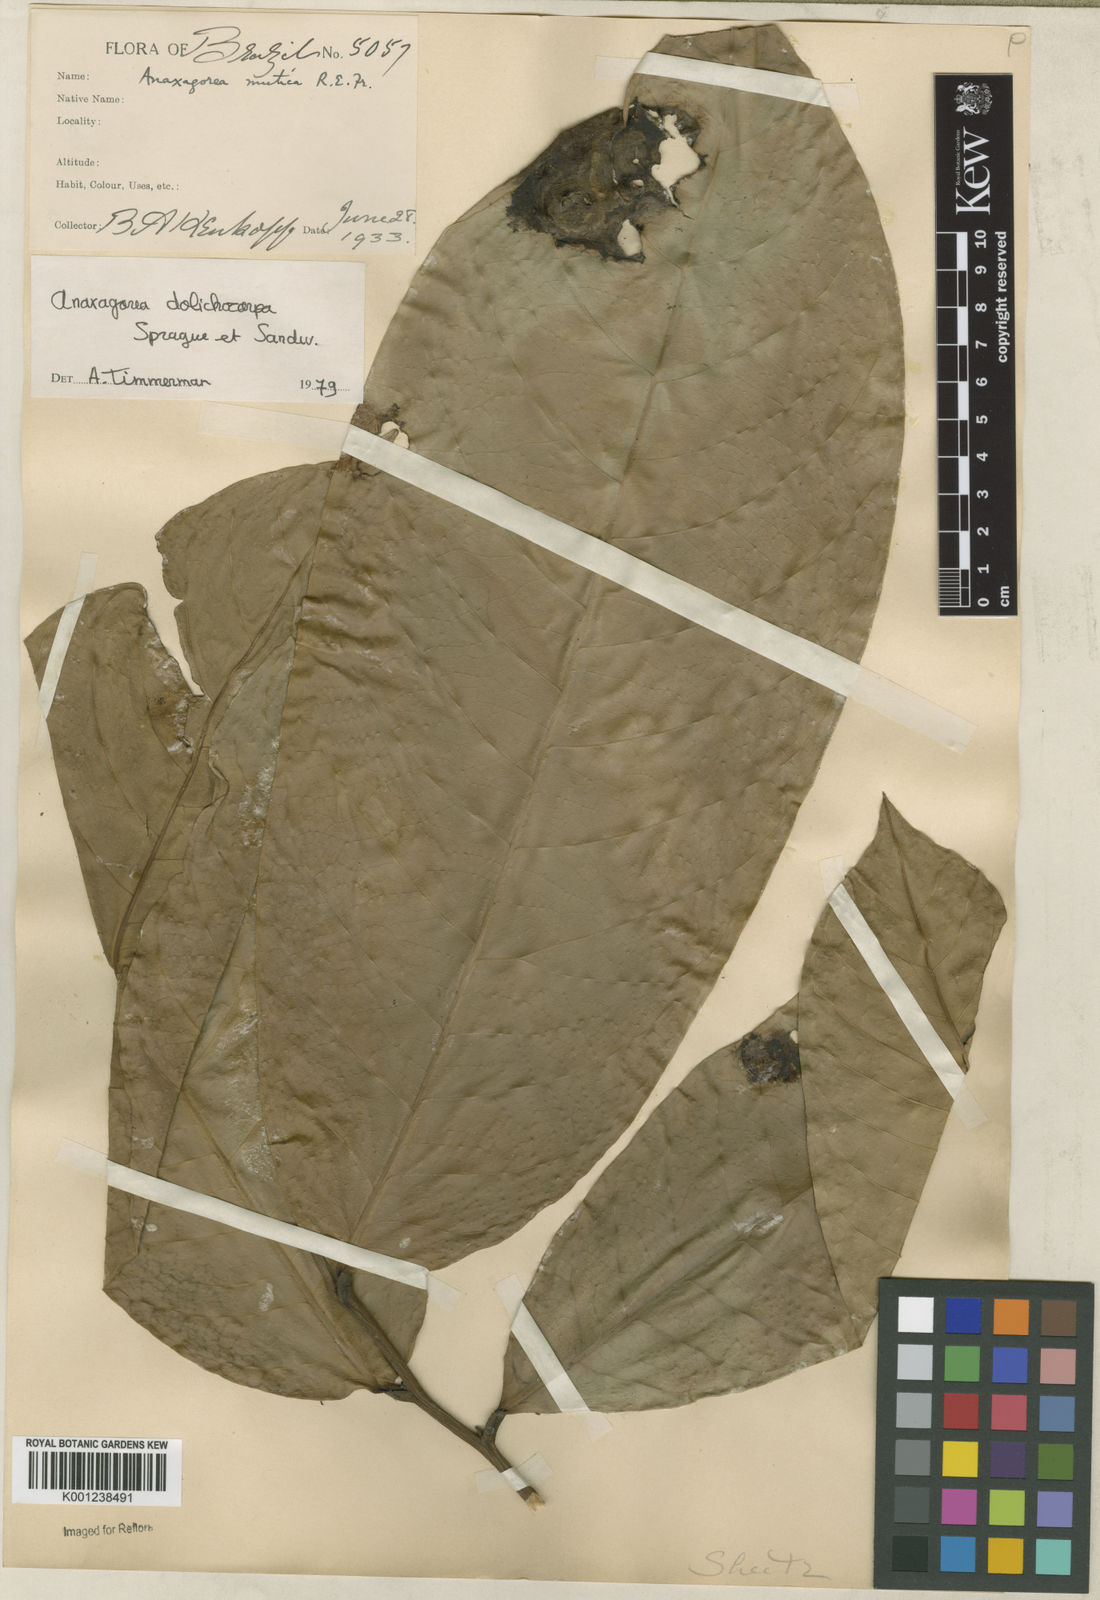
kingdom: Plantae
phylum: Tracheophyta
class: Magnoliopsida
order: Magnoliales
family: Annonaceae
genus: Anaxagorea
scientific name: Anaxagorea dolichocarpa
